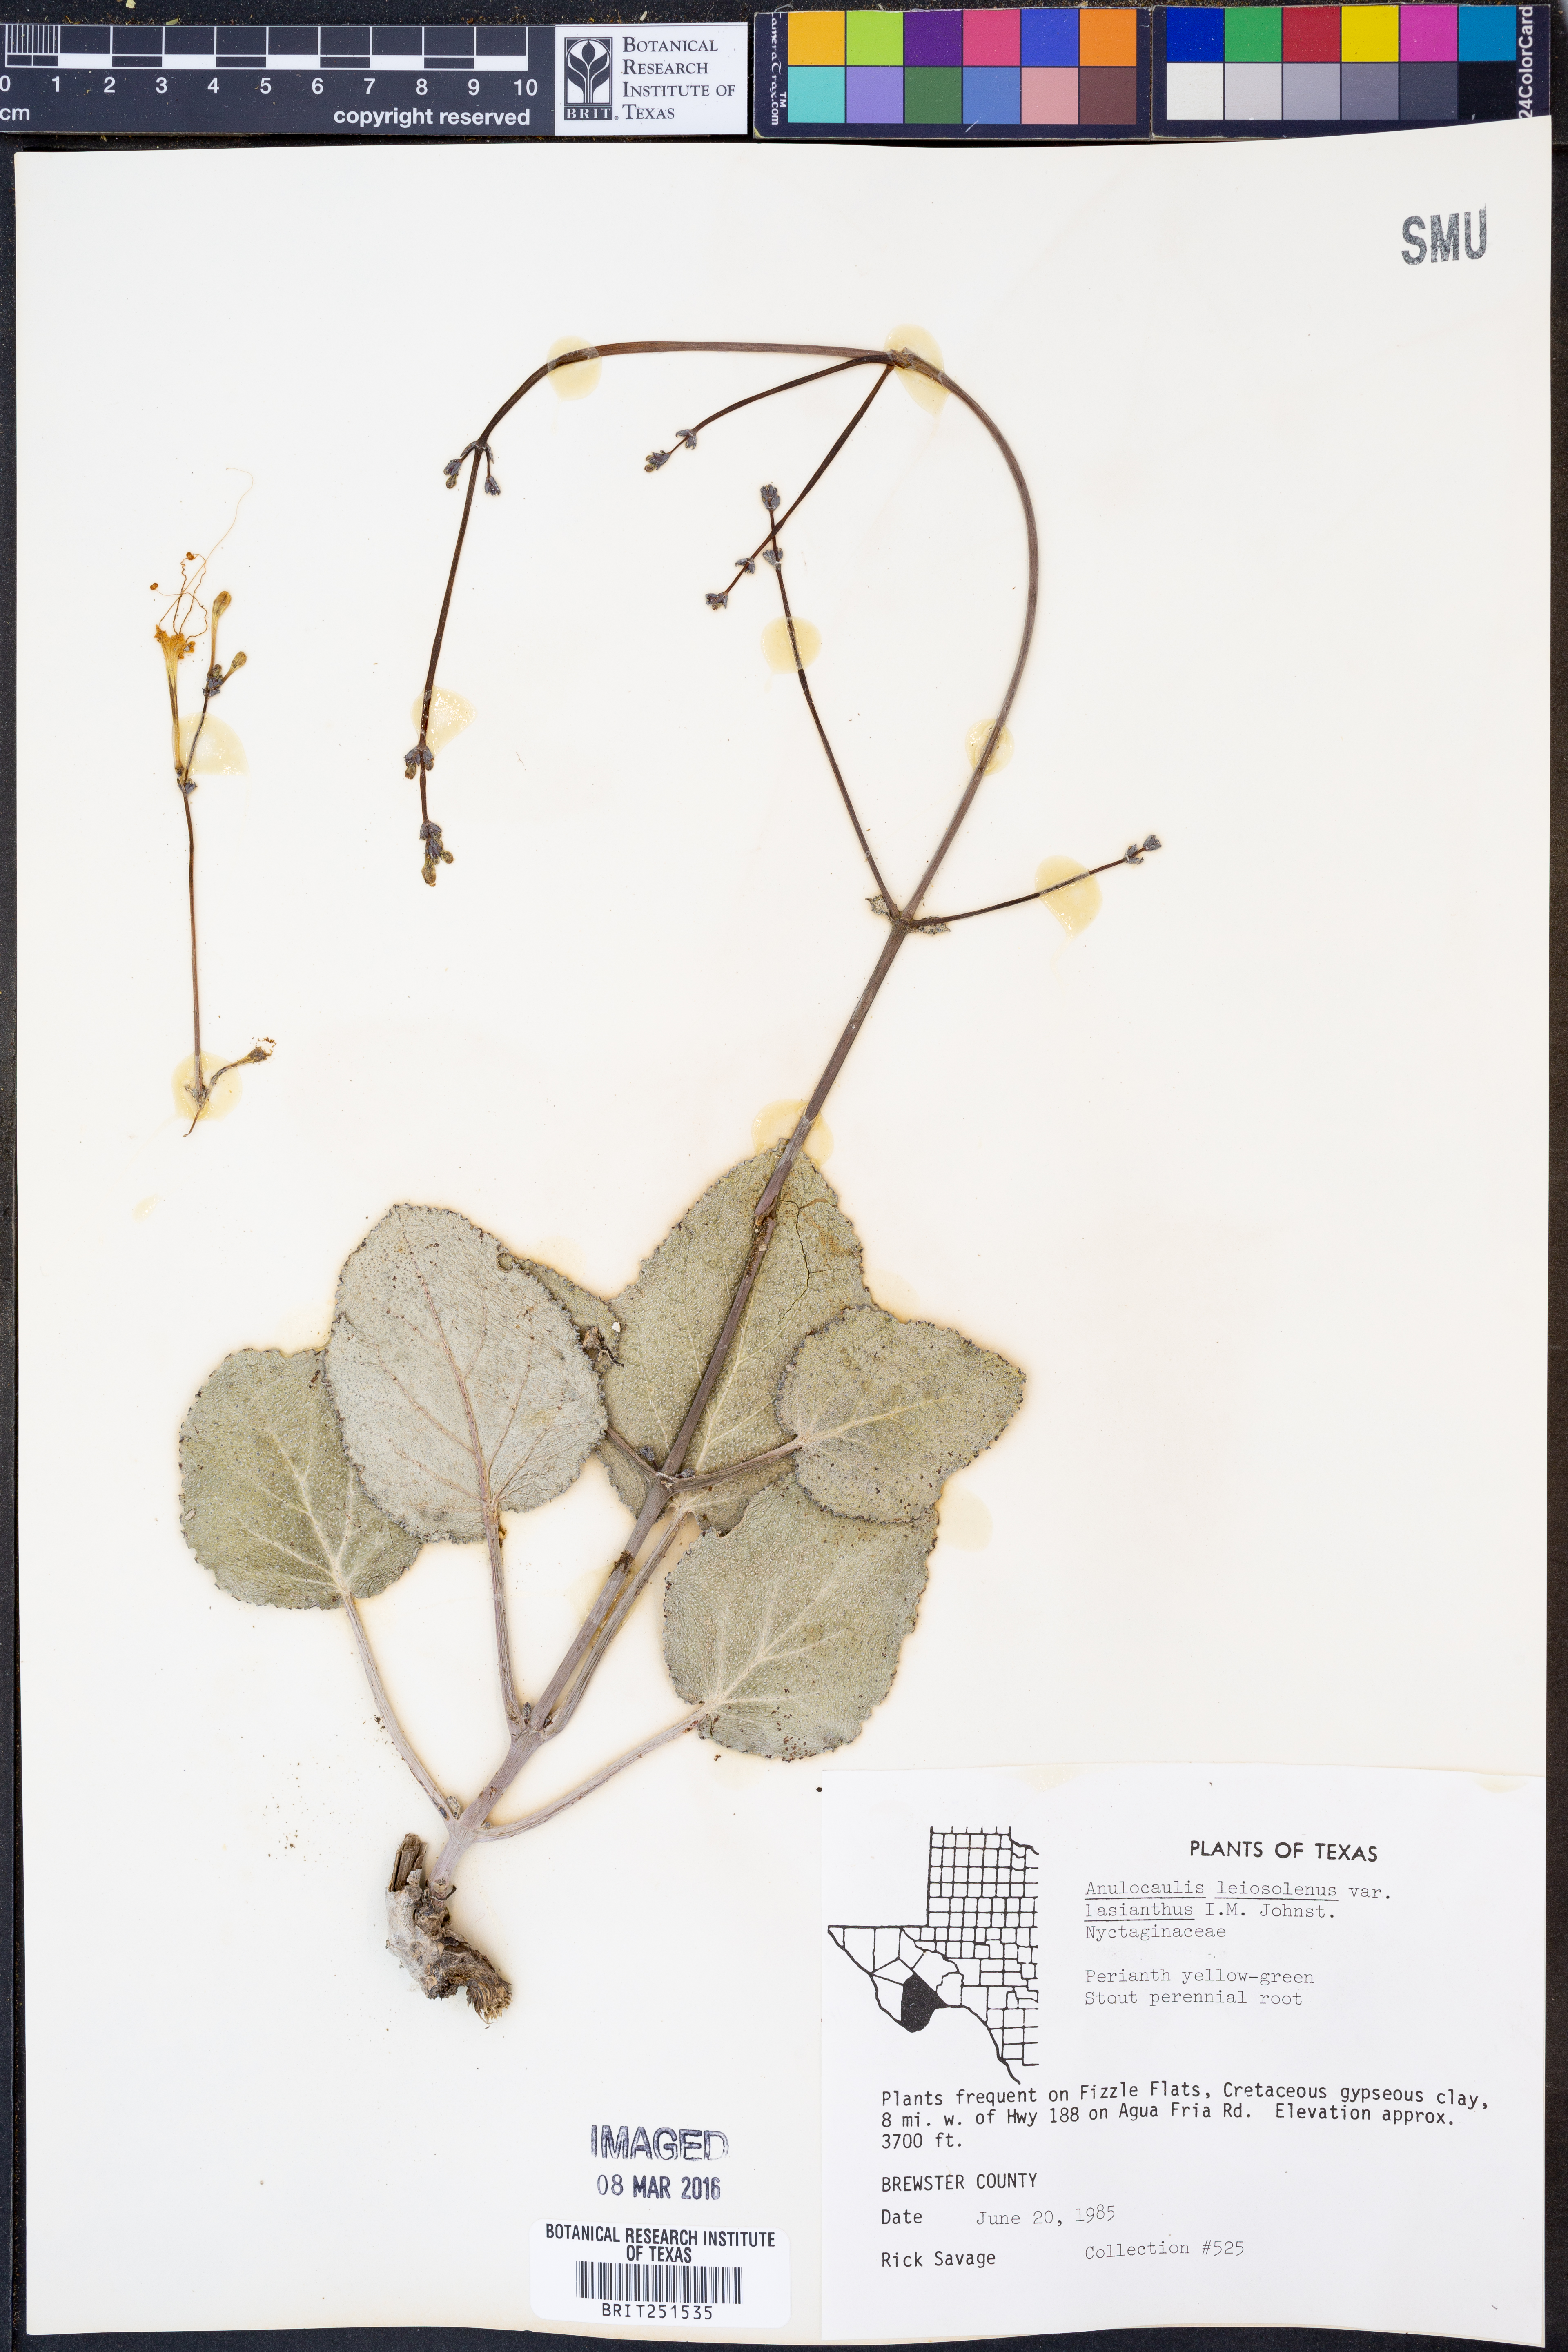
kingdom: Plantae
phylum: Tracheophyta
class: Magnoliopsida
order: Caryophyllales
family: Nyctaginaceae
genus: Anulocaulis
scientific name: Anulocaulis leiosolenus
